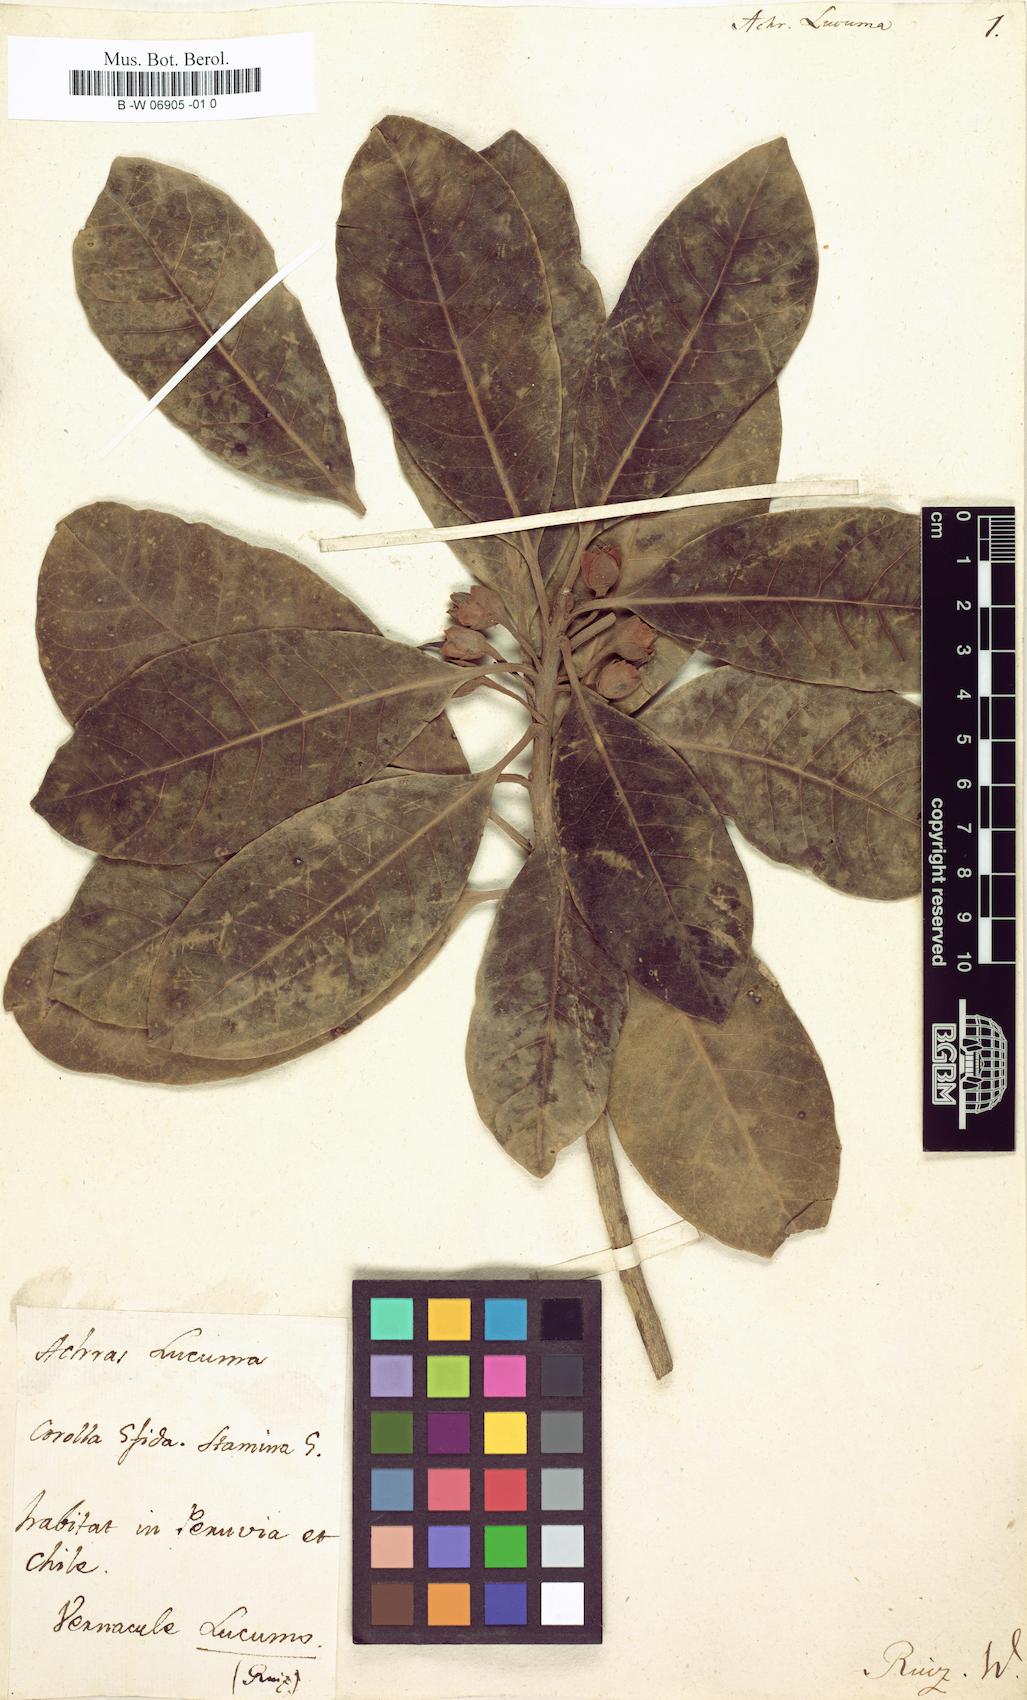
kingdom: Plantae
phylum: Tracheophyta
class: Magnoliopsida
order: Ericales
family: Sapotaceae
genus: Pouteria
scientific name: Pouteria lucuma
